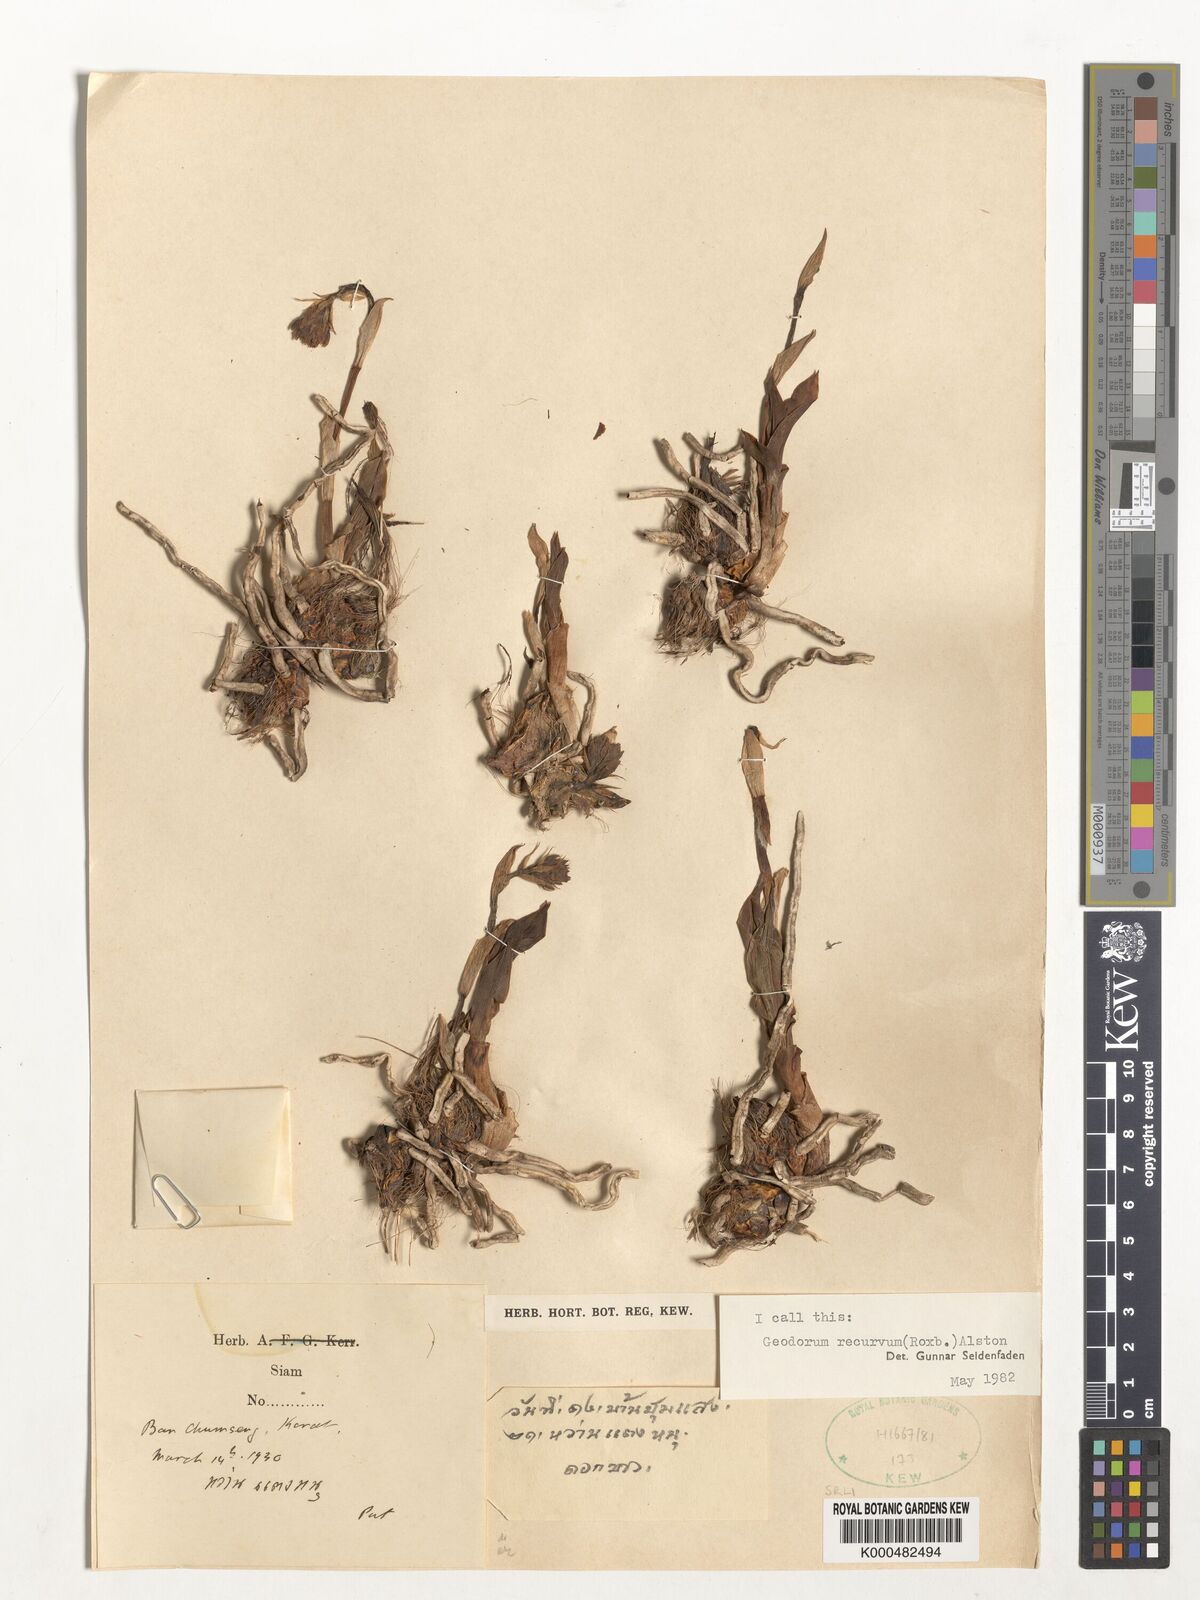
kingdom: Plantae
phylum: Tracheophyta
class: Liliopsida
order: Asparagales
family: Orchidaceae
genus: Eulophia
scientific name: Eulophia recurva
